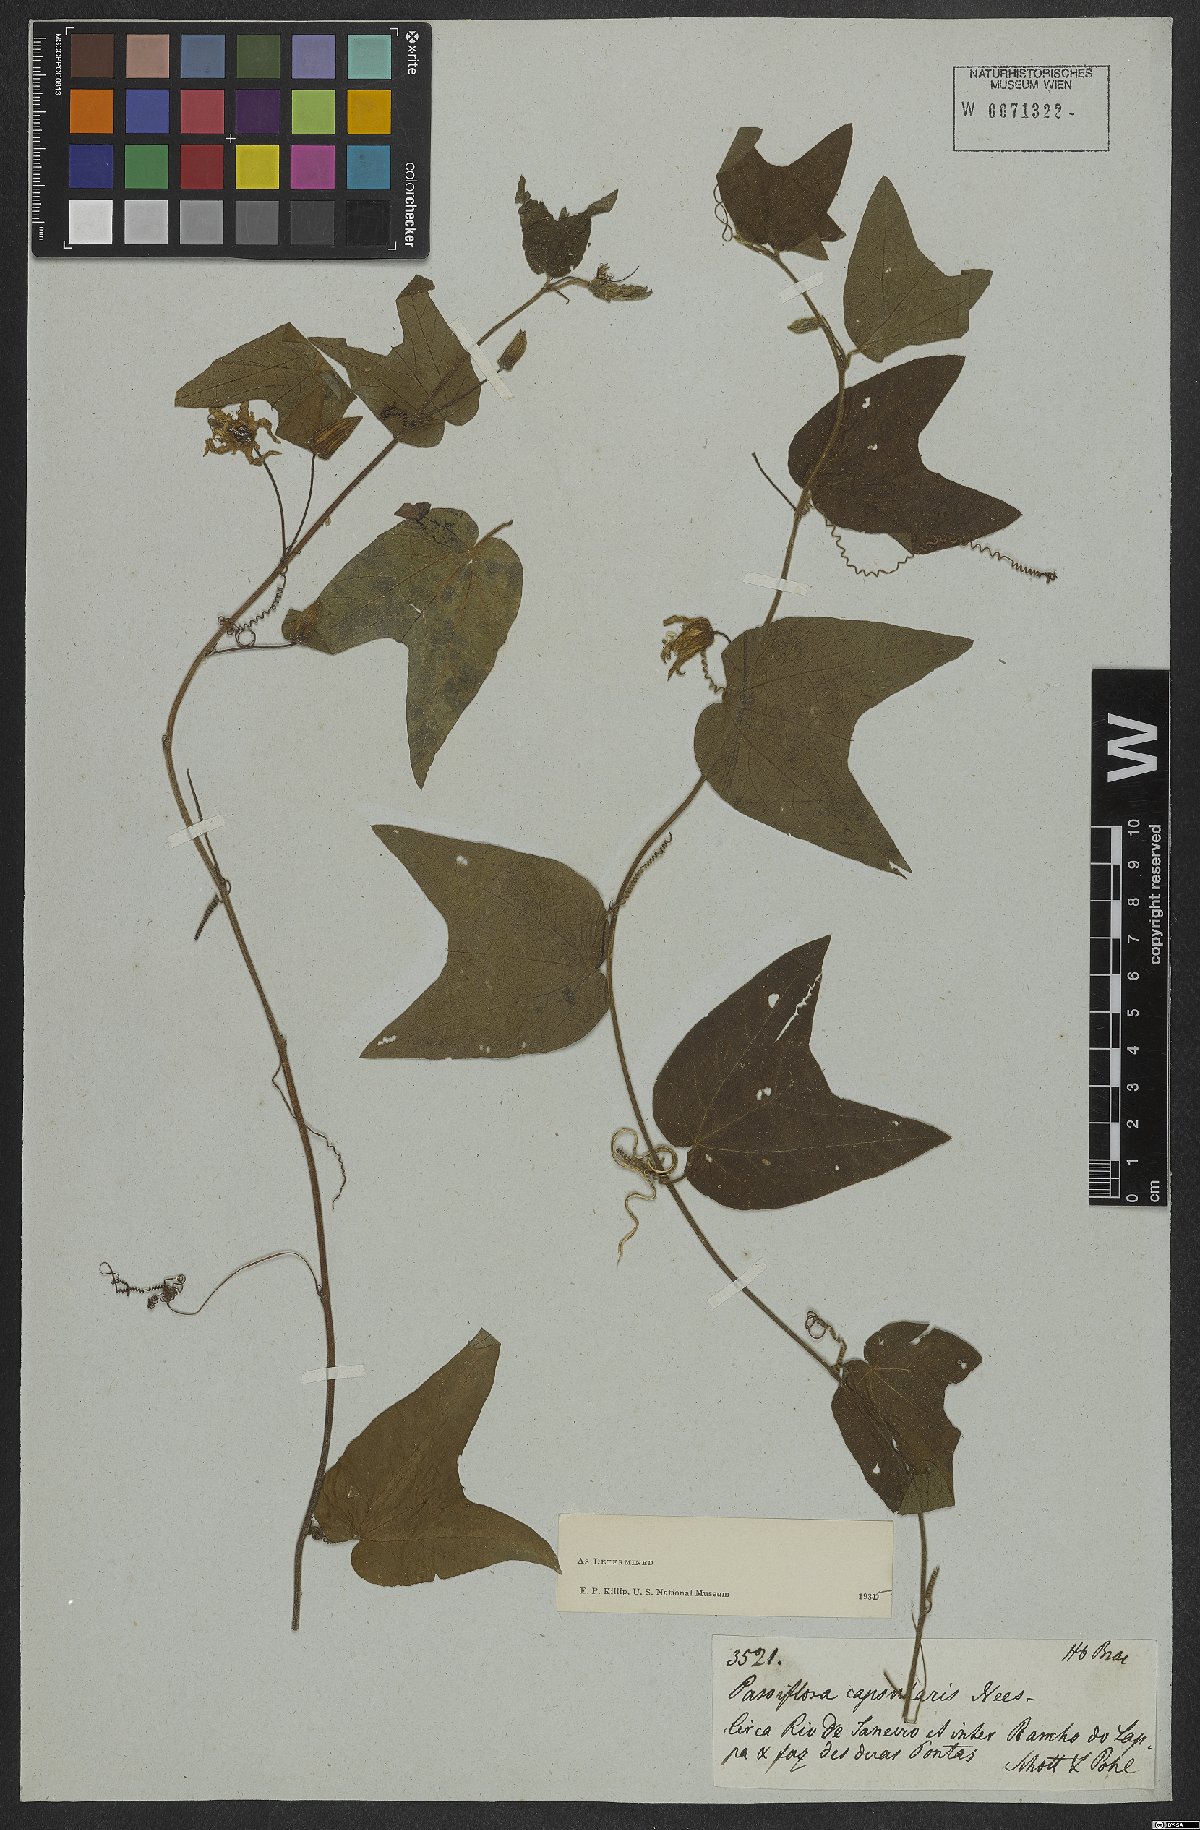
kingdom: Plantae
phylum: Tracheophyta
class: Magnoliopsida
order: Malpighiales
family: Passifloraceae
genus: Passiflora
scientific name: Passiflora capsularis
